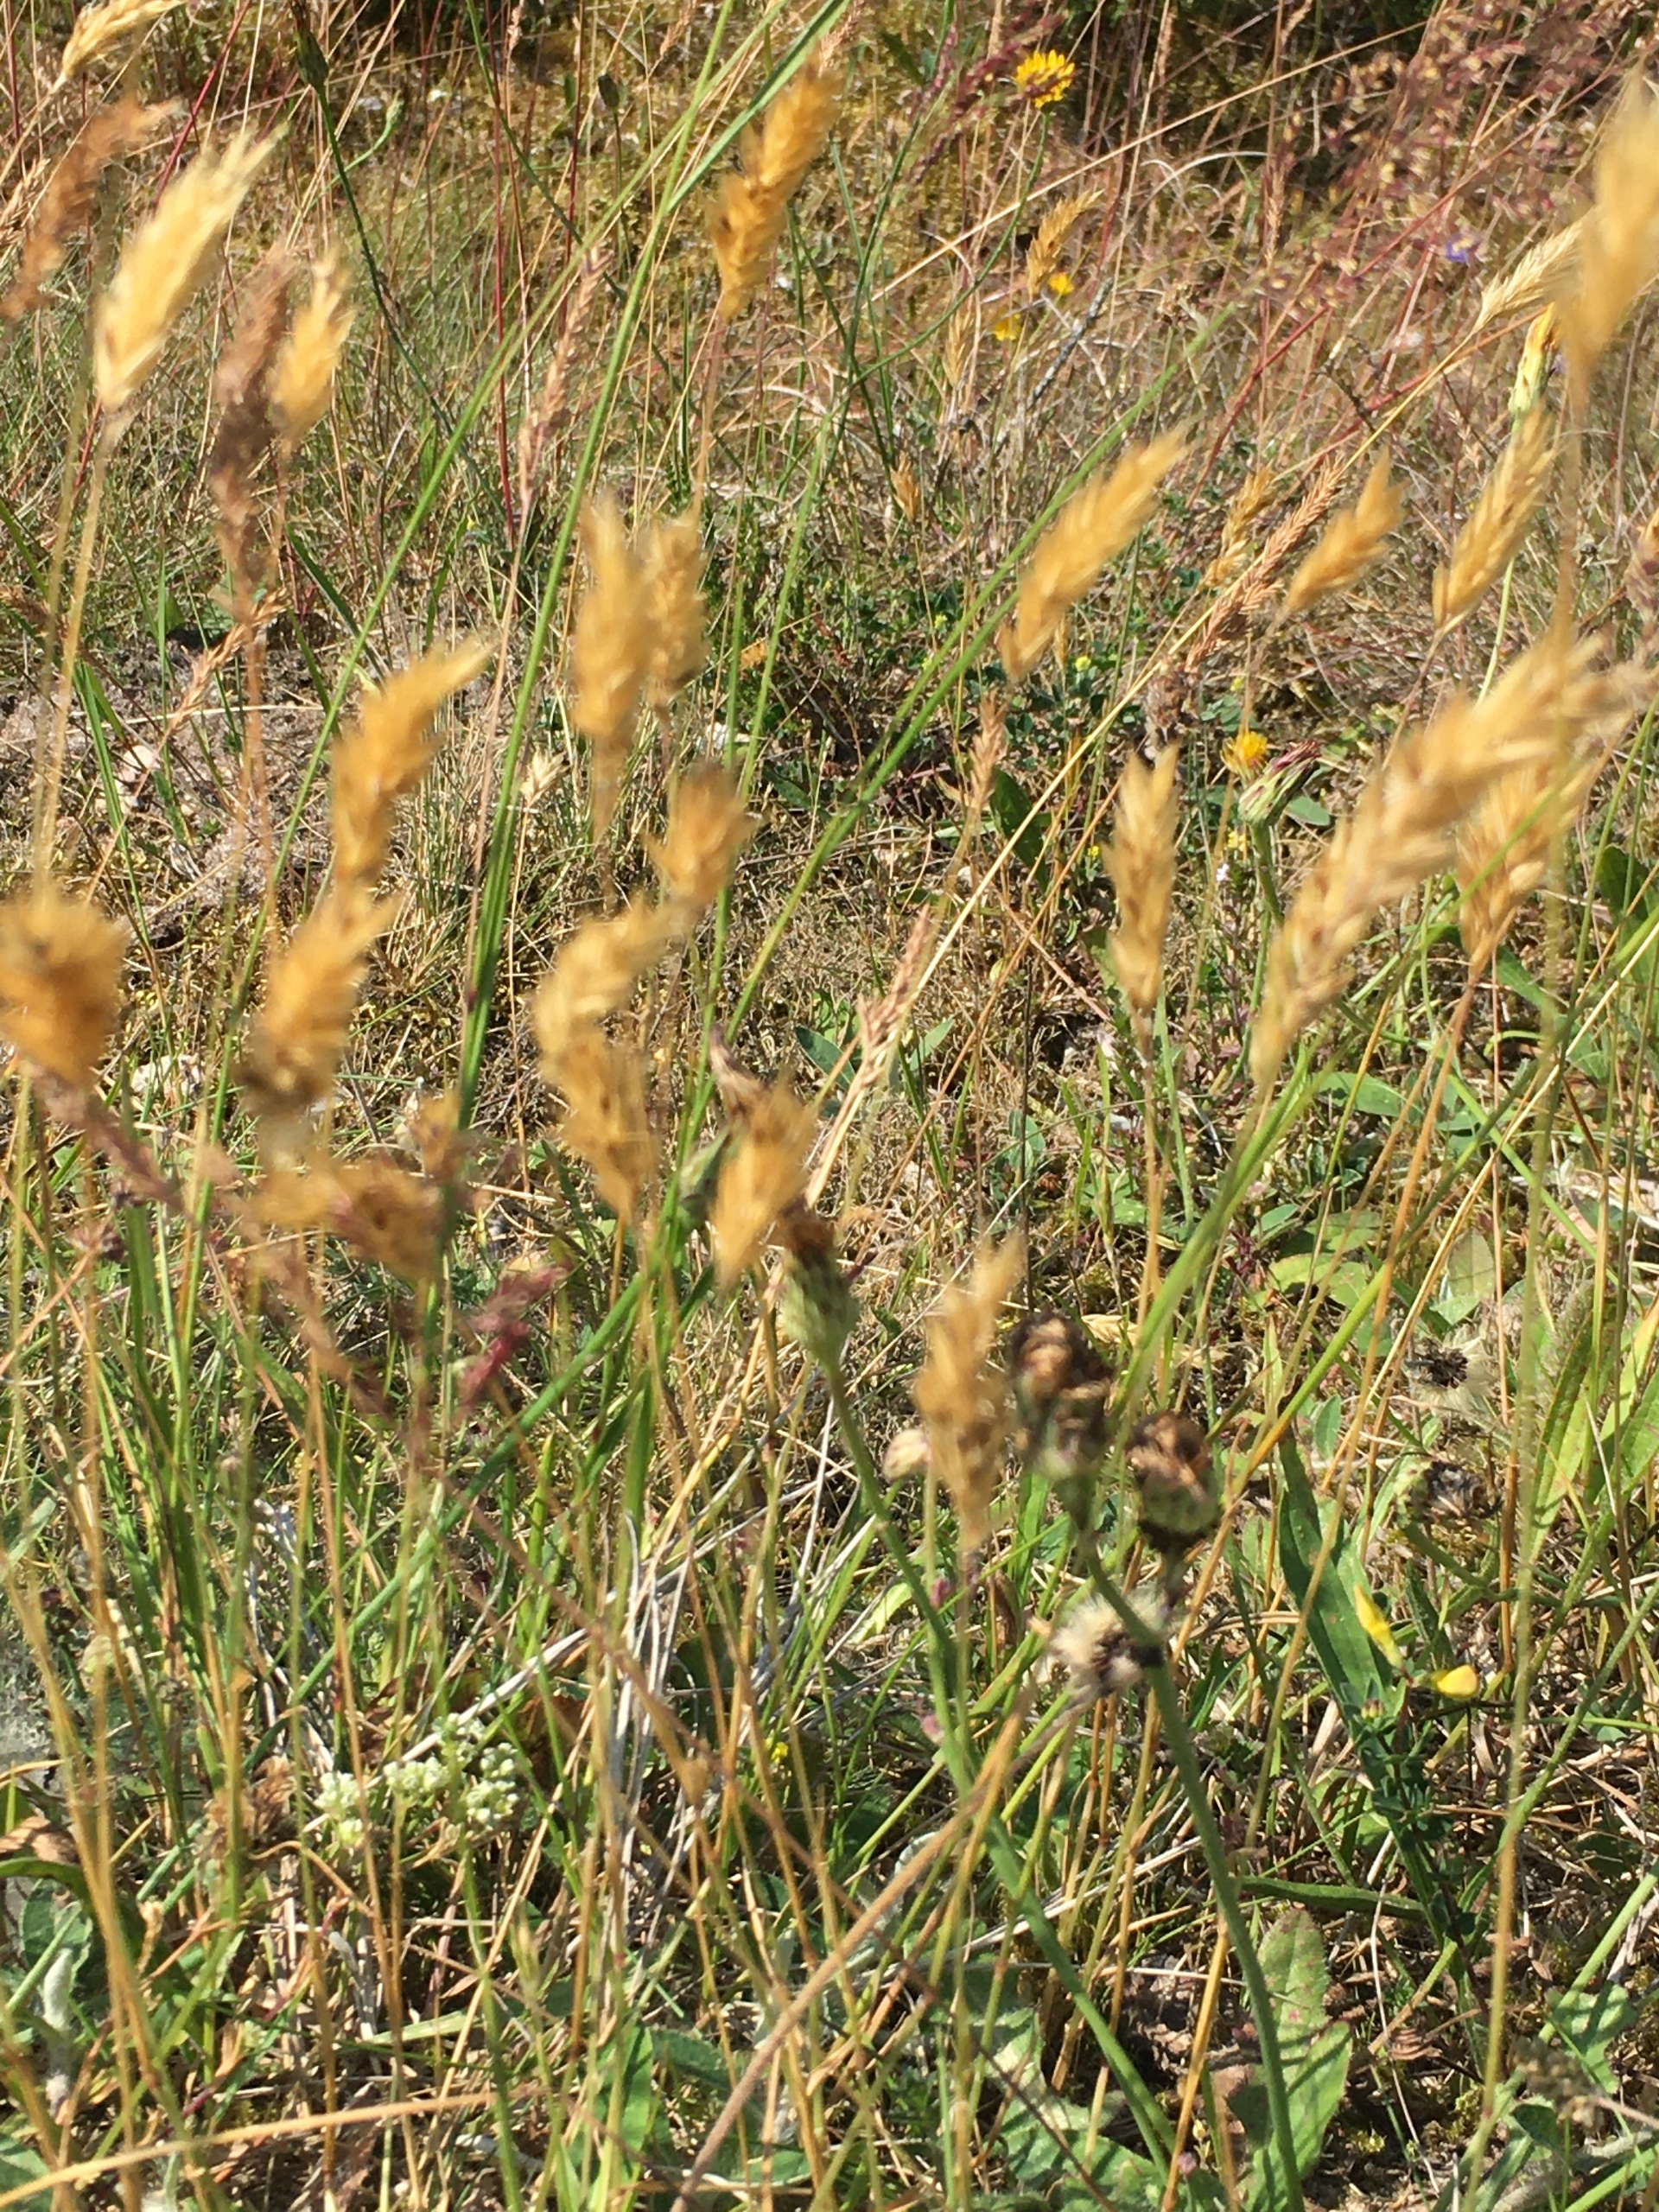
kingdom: Plantae
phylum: Tracheophyta
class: Liliopsida
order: Poales
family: Poaceae
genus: Anthoxanthum
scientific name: Anthoxanthum odoratum
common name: Vellugtende gulaks
